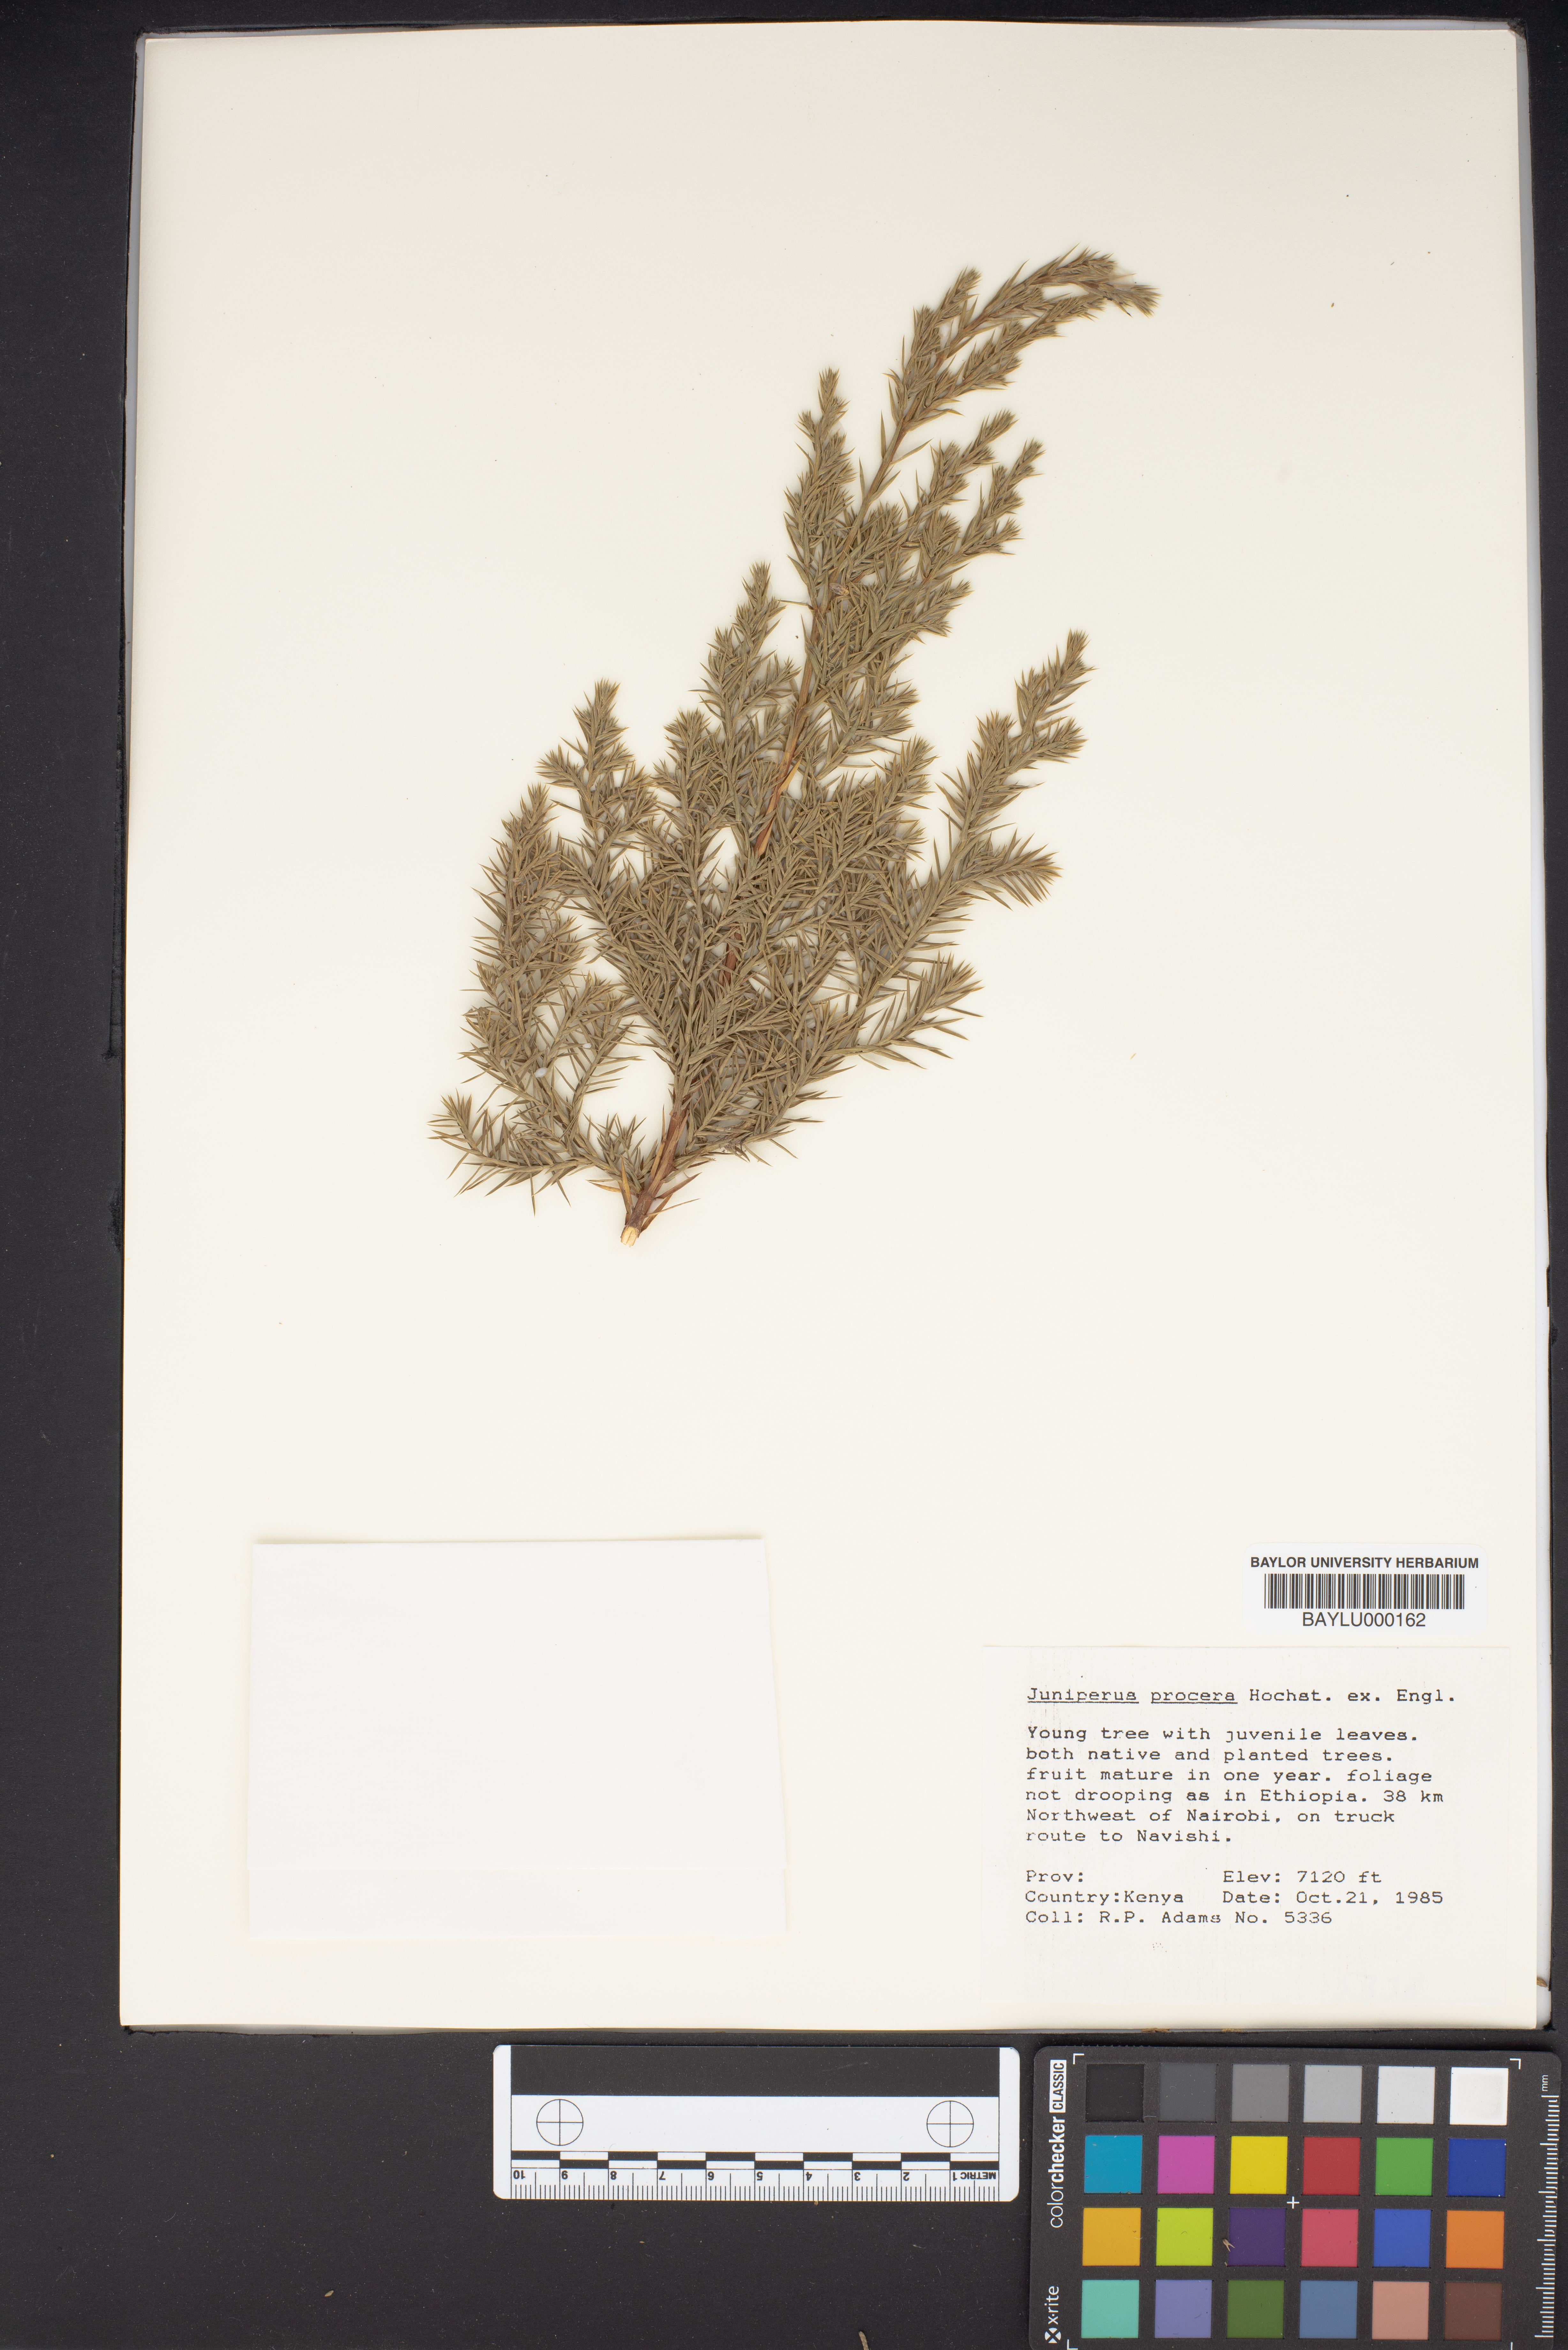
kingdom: Plantae
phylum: Tracheophyta
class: Pinopsida
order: Pinales
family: Cupressaceae
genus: Juniperus
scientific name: Juniperus procera
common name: African juniper
